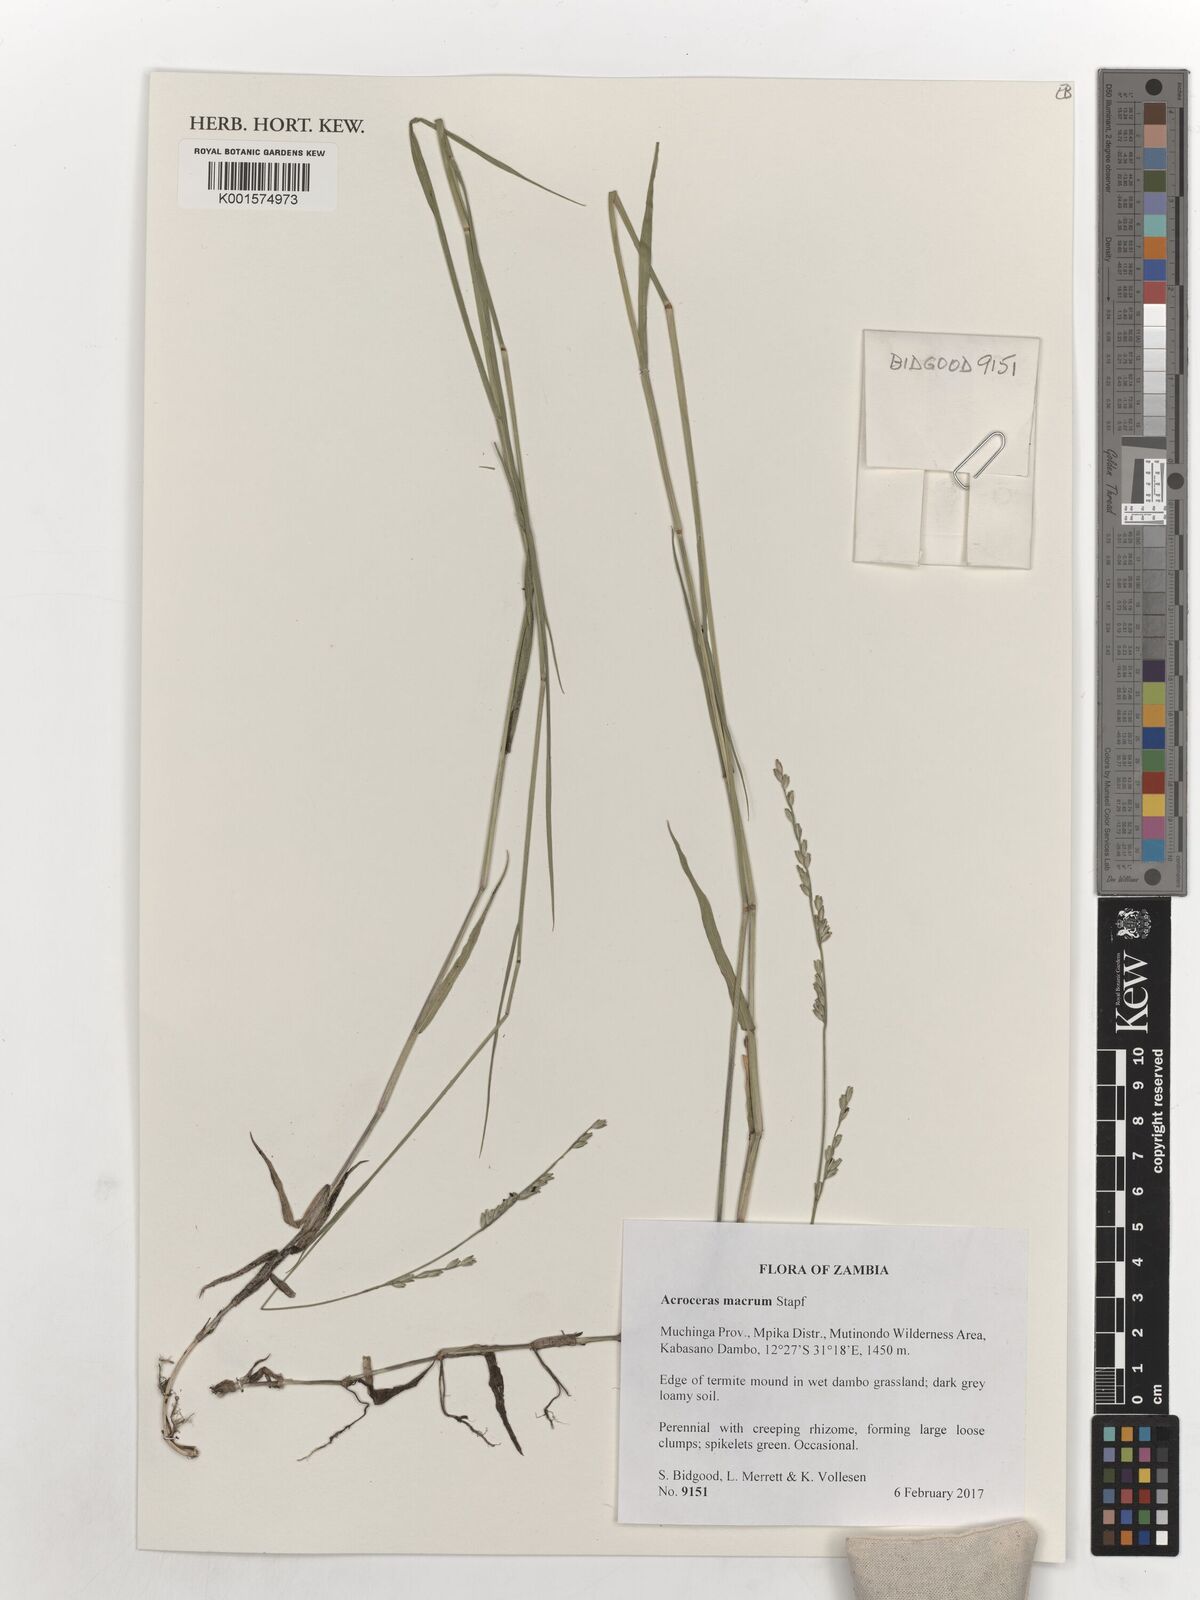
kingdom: Plantae
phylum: Tracheophyta
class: Liliopsida
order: Poales
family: Poaceae
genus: Acroceras
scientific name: Acroceras macrum
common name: Nyl grass
